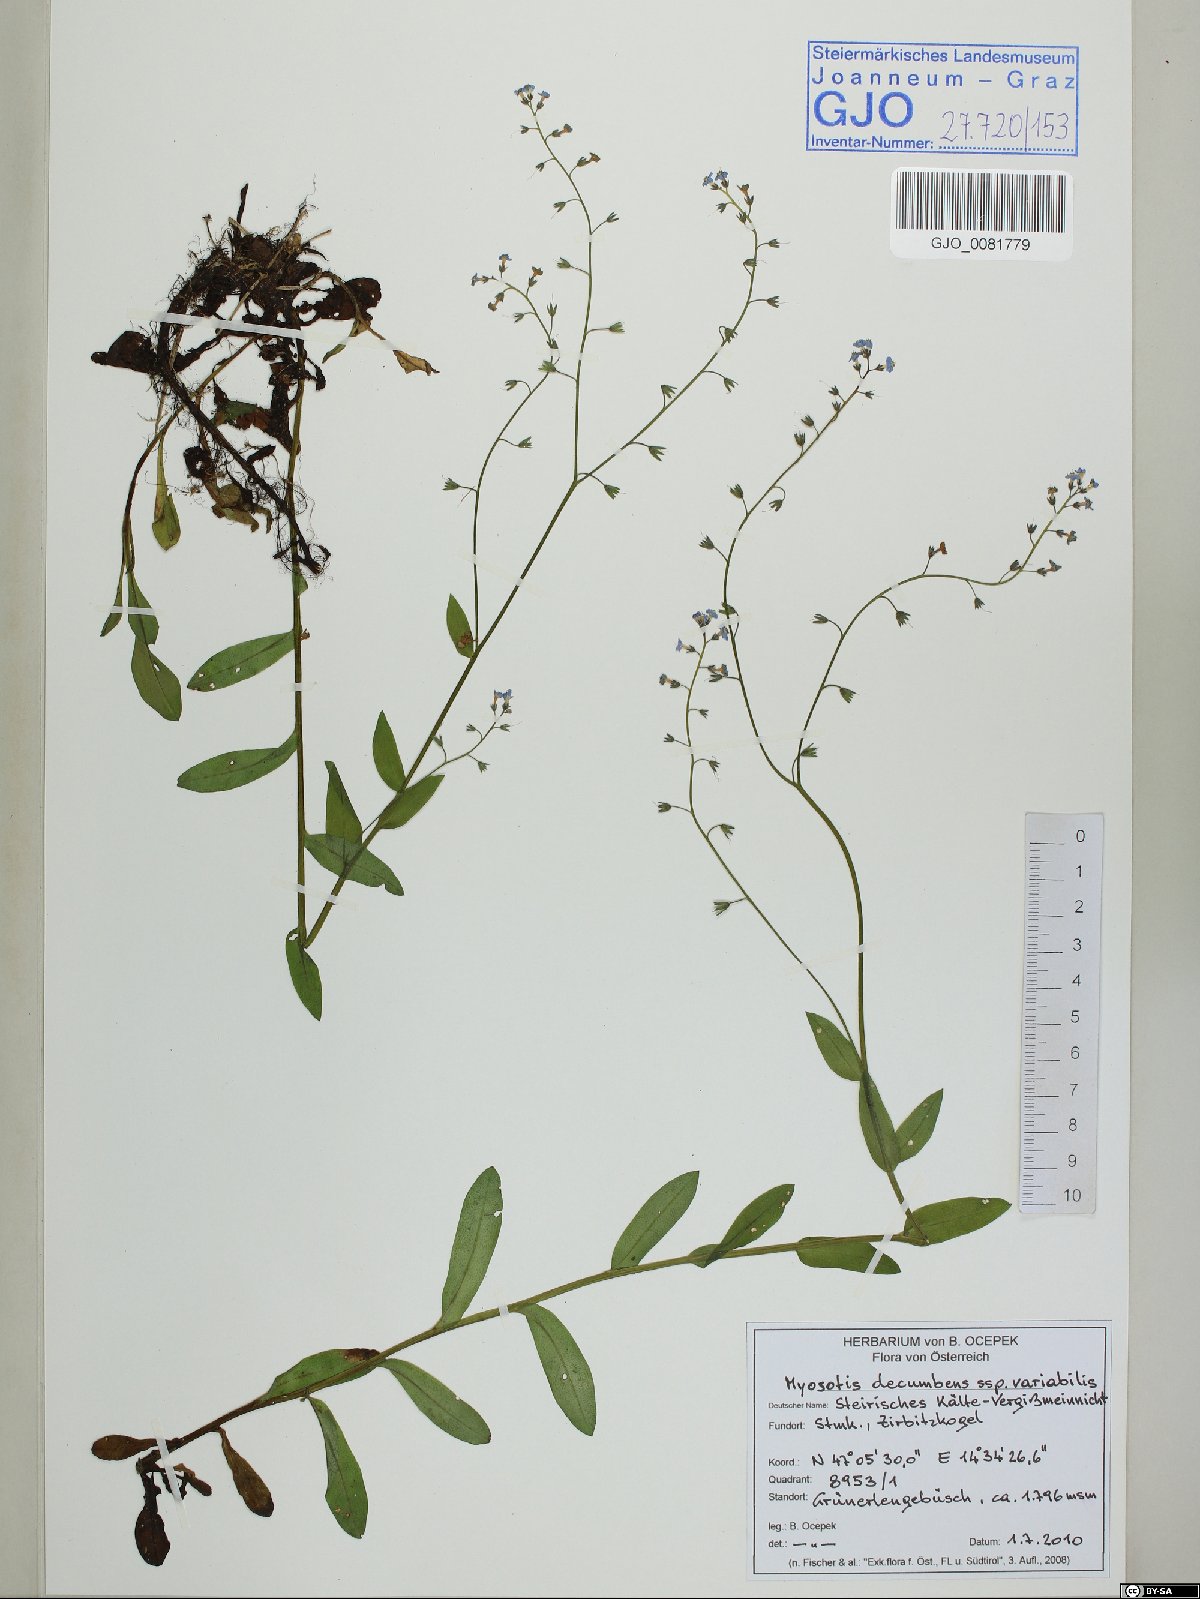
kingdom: Plantae
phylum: Tracheophyta
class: Magnoliopsida
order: Boraginales
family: Boraginaceae
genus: Myosotis
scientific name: Myosotis decumbens
